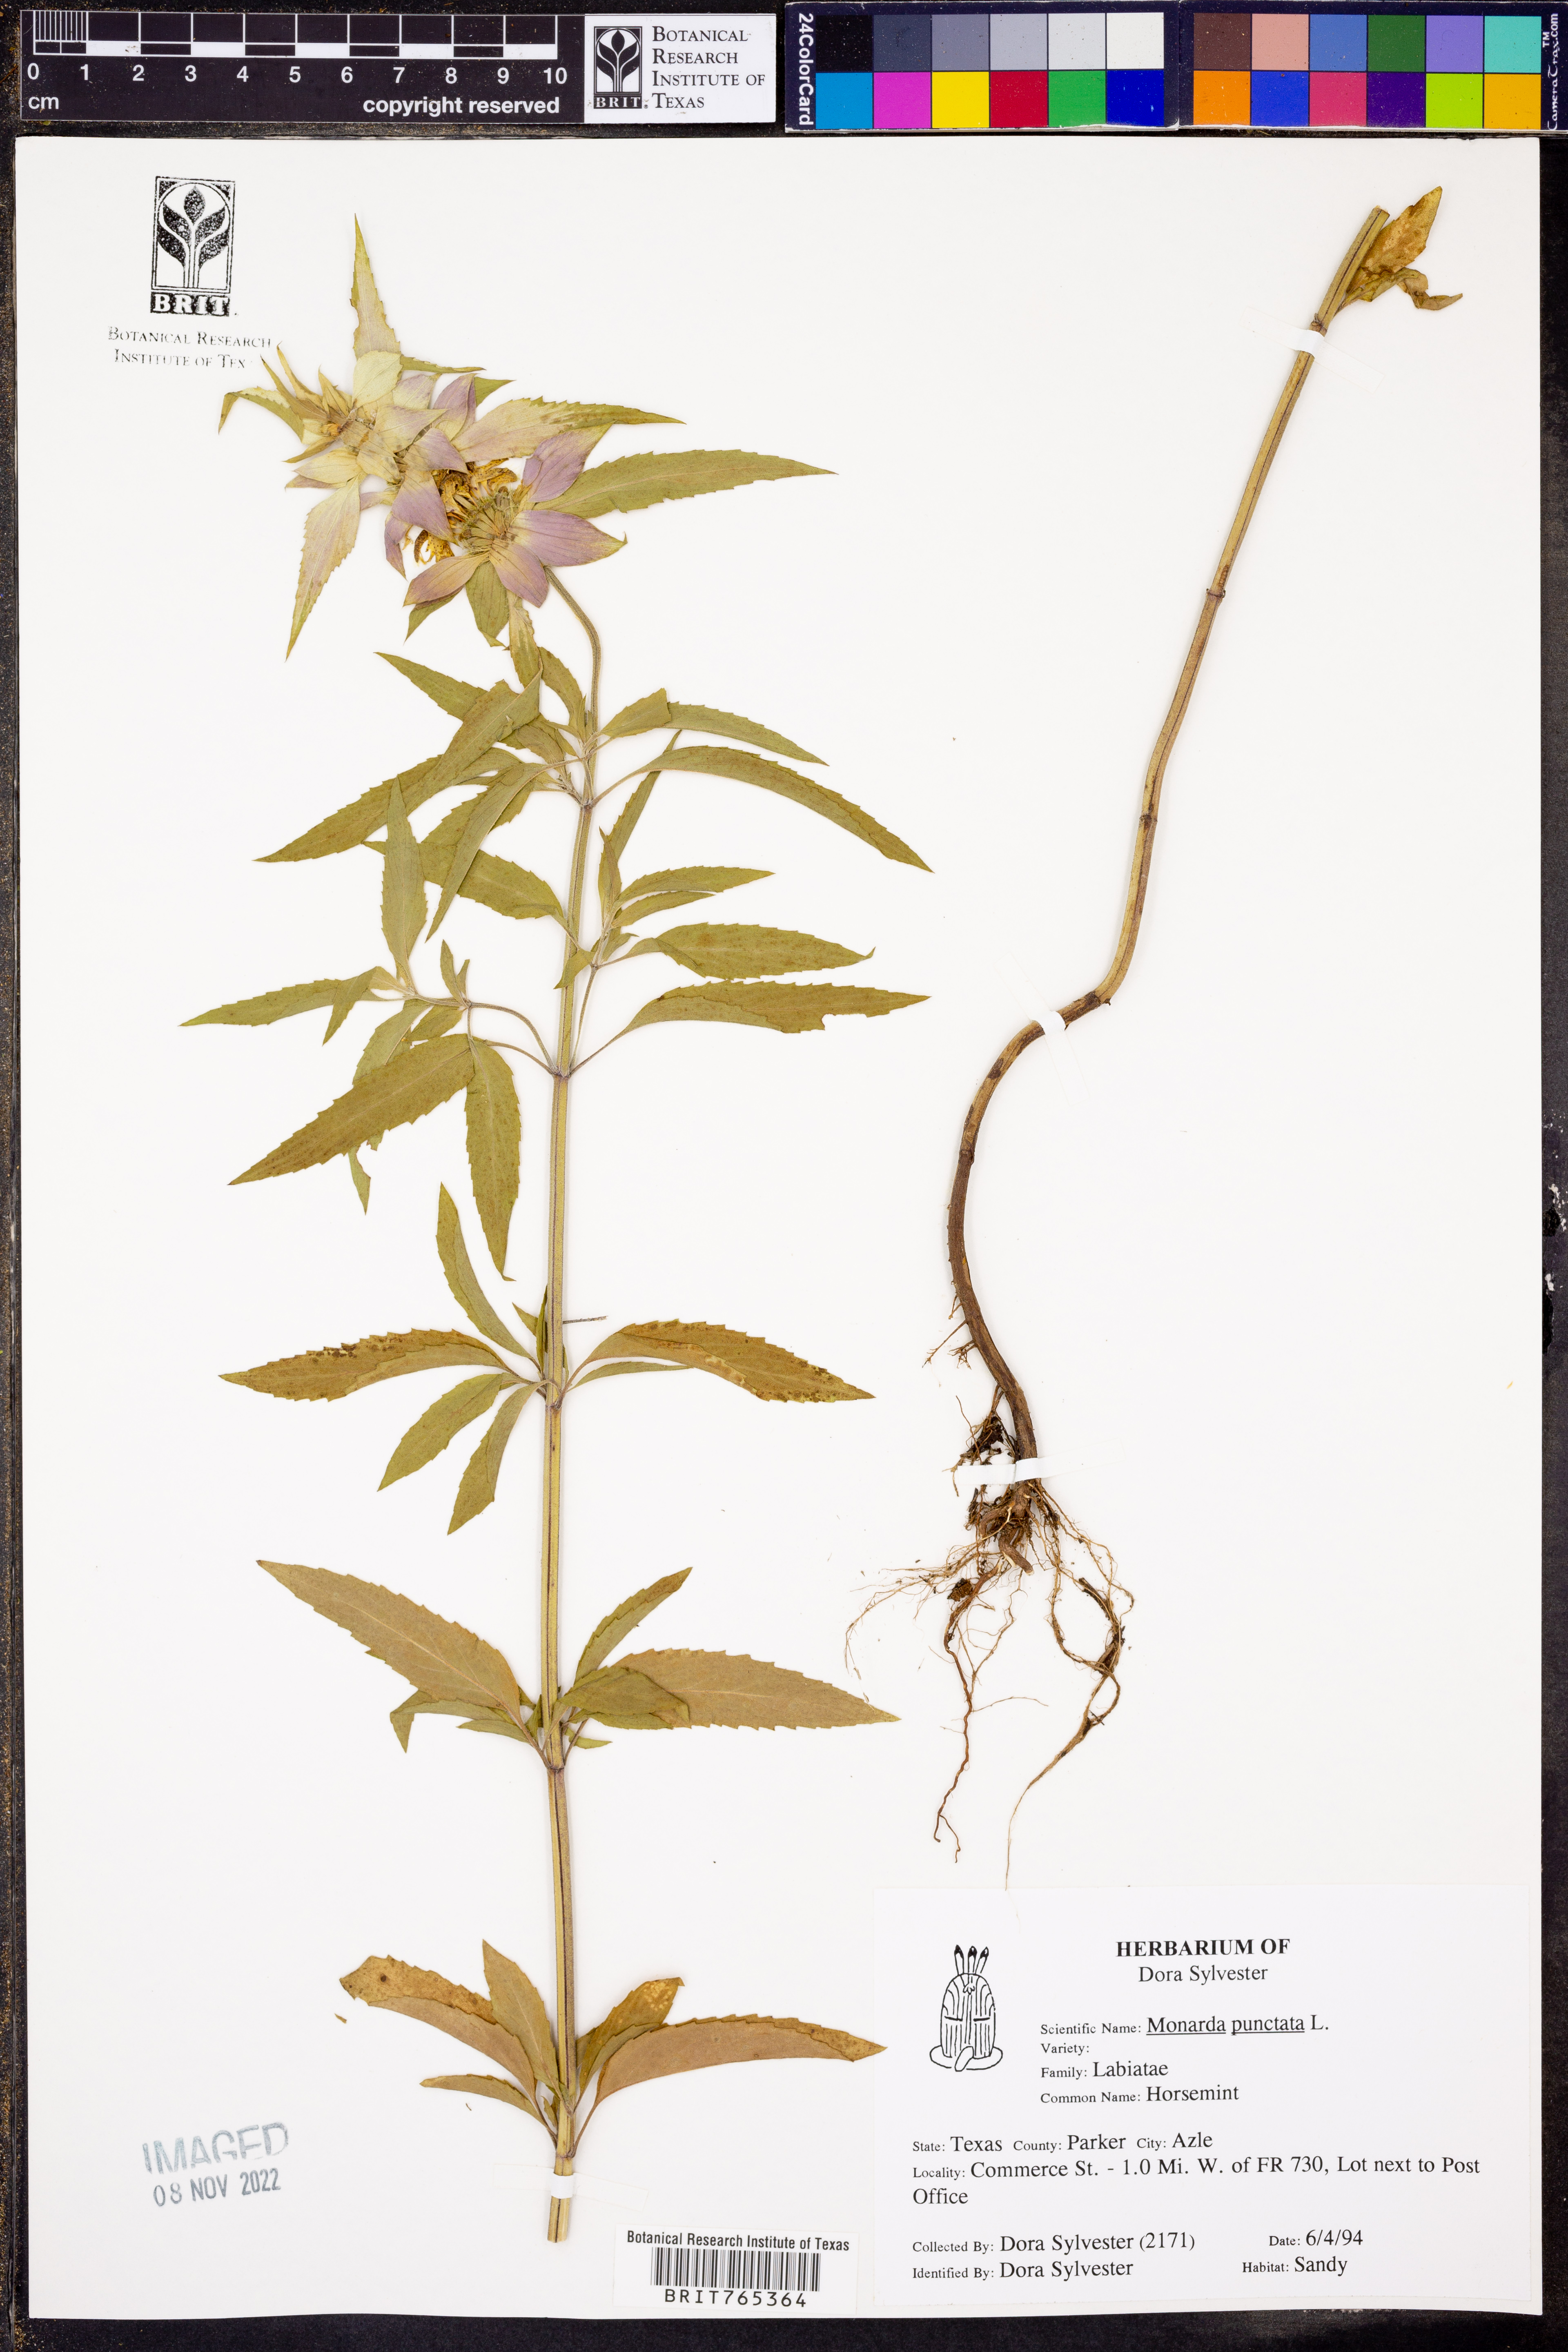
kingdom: Plantae
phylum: Tracheophyta
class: Magnoliopsida
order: Lamiales
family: Lamiaceae
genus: Monarda
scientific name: Monarda punctata
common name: Dotted monarda
